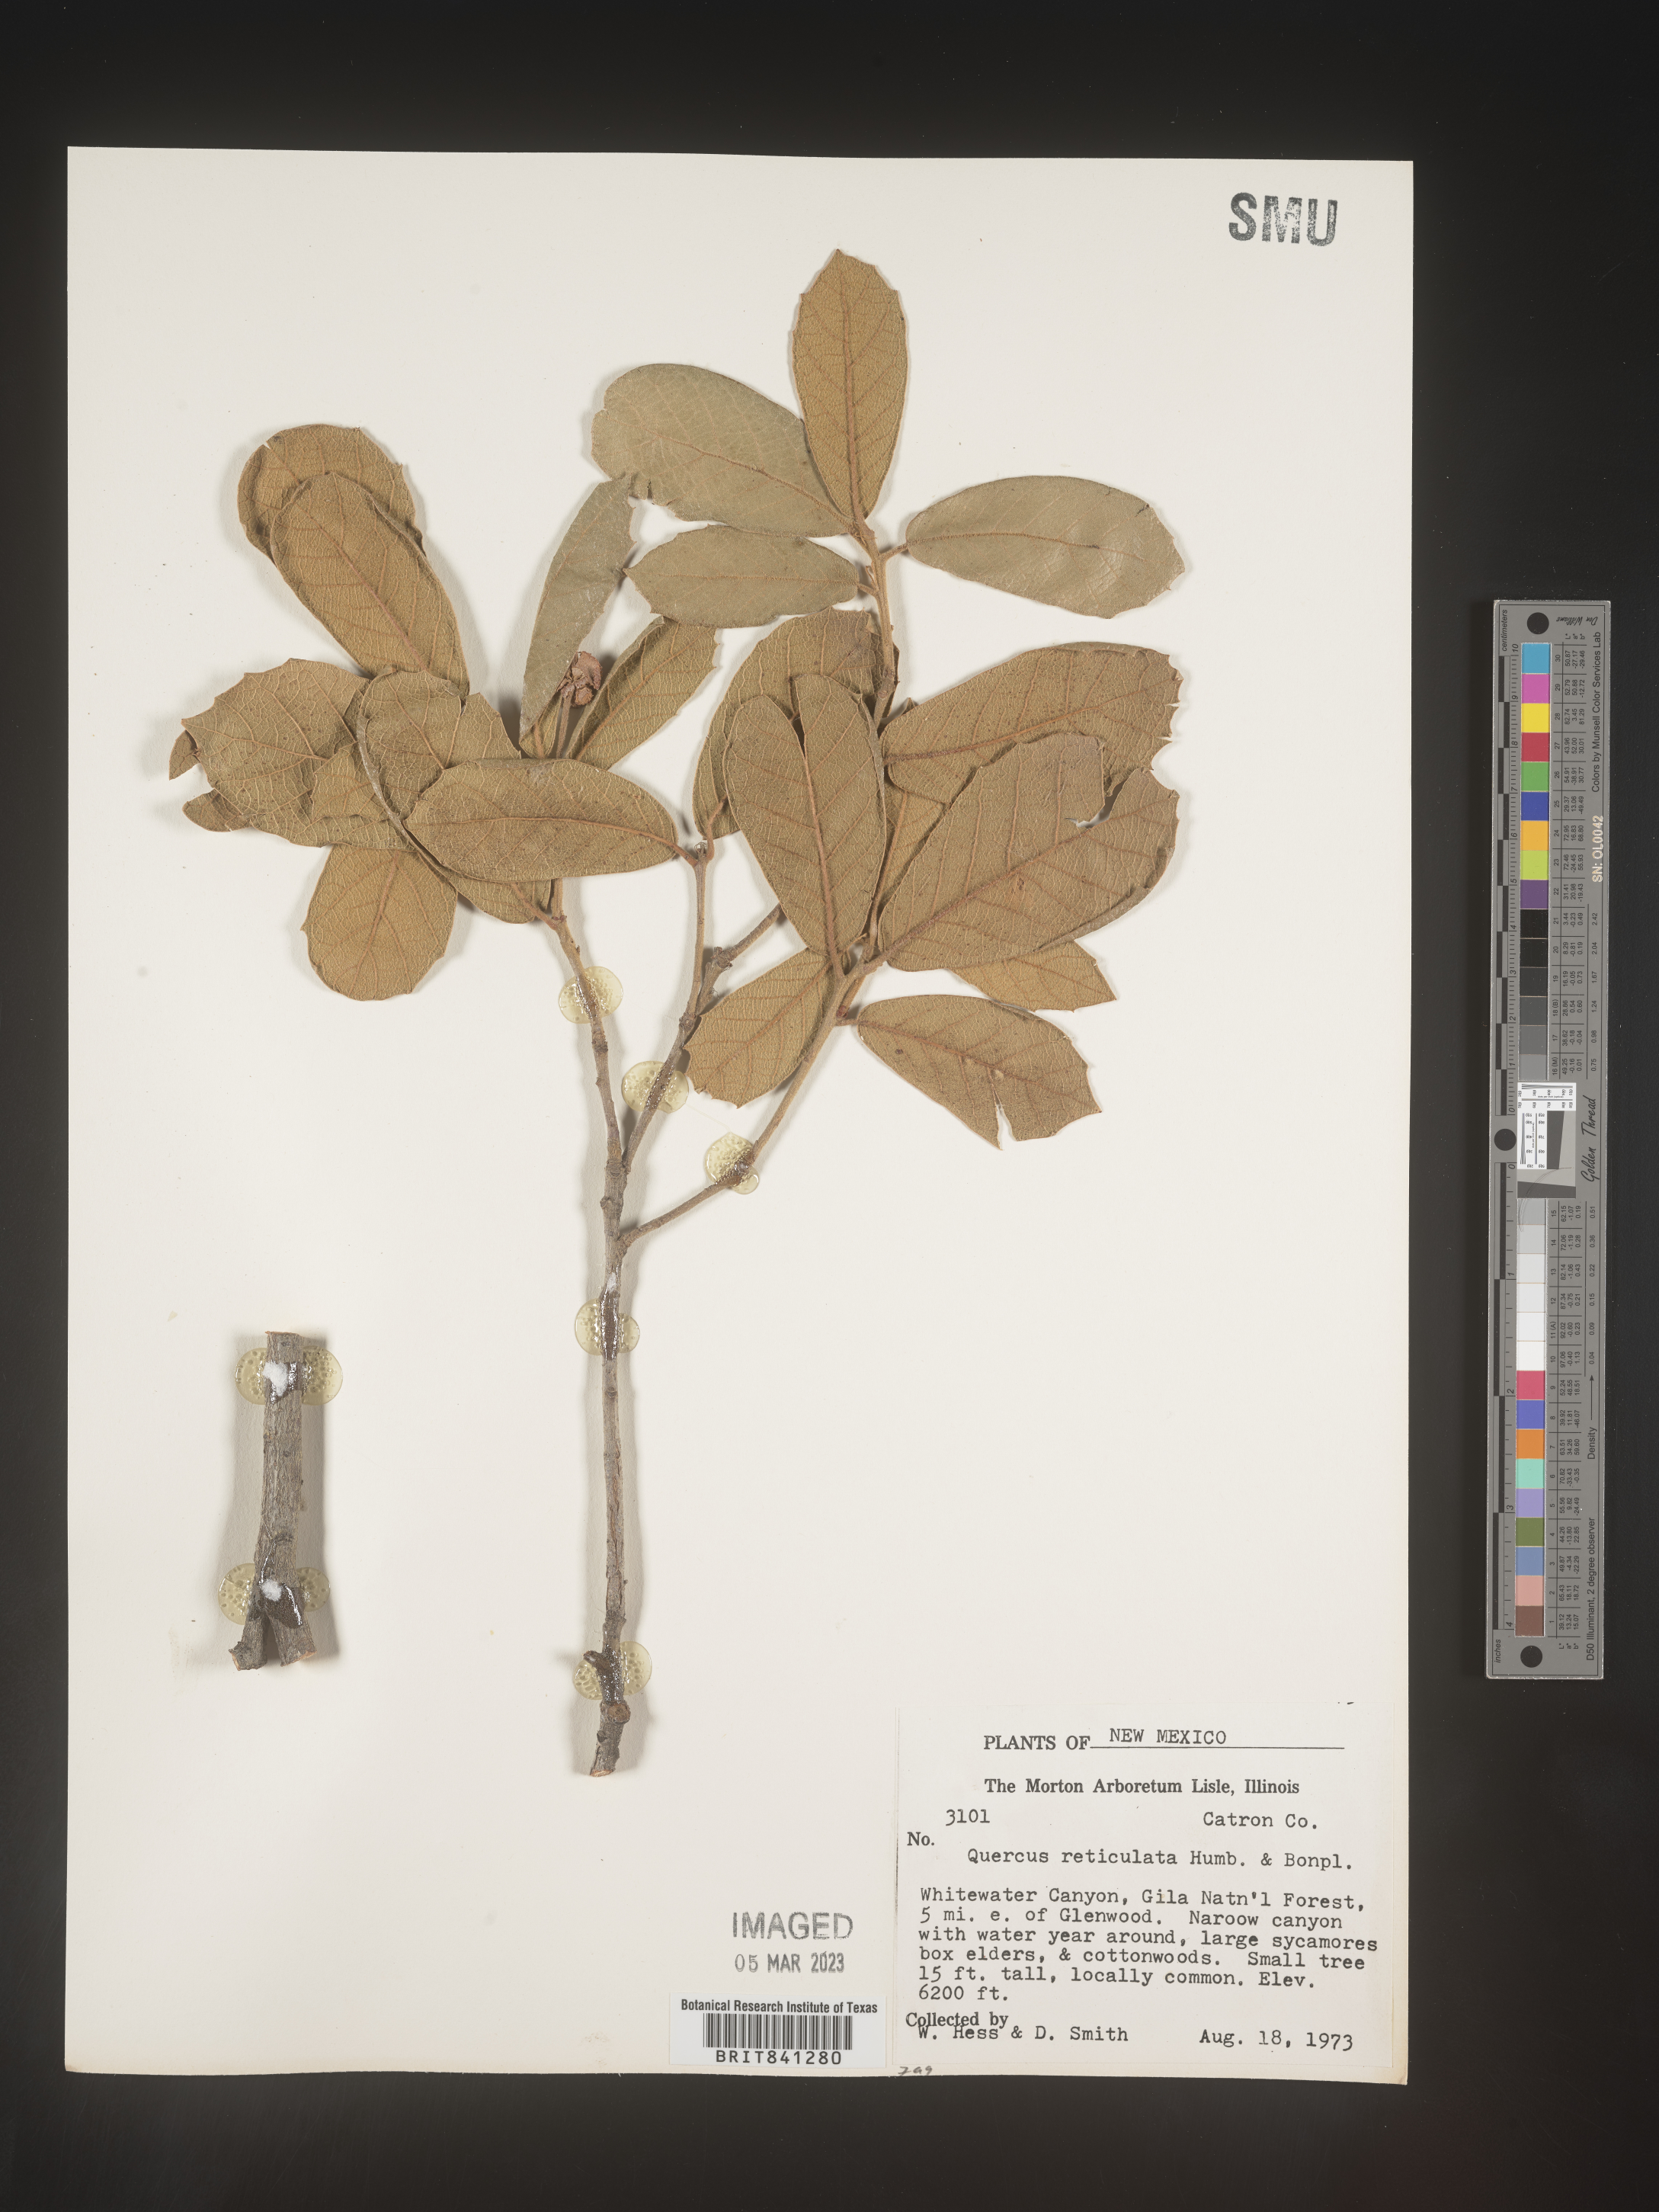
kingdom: Plantae
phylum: Tracheophyta
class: Magnoliopsida
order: Fagales
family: Fagaceae
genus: Quercus
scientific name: Quercus rugosa
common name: Netleaf oak
